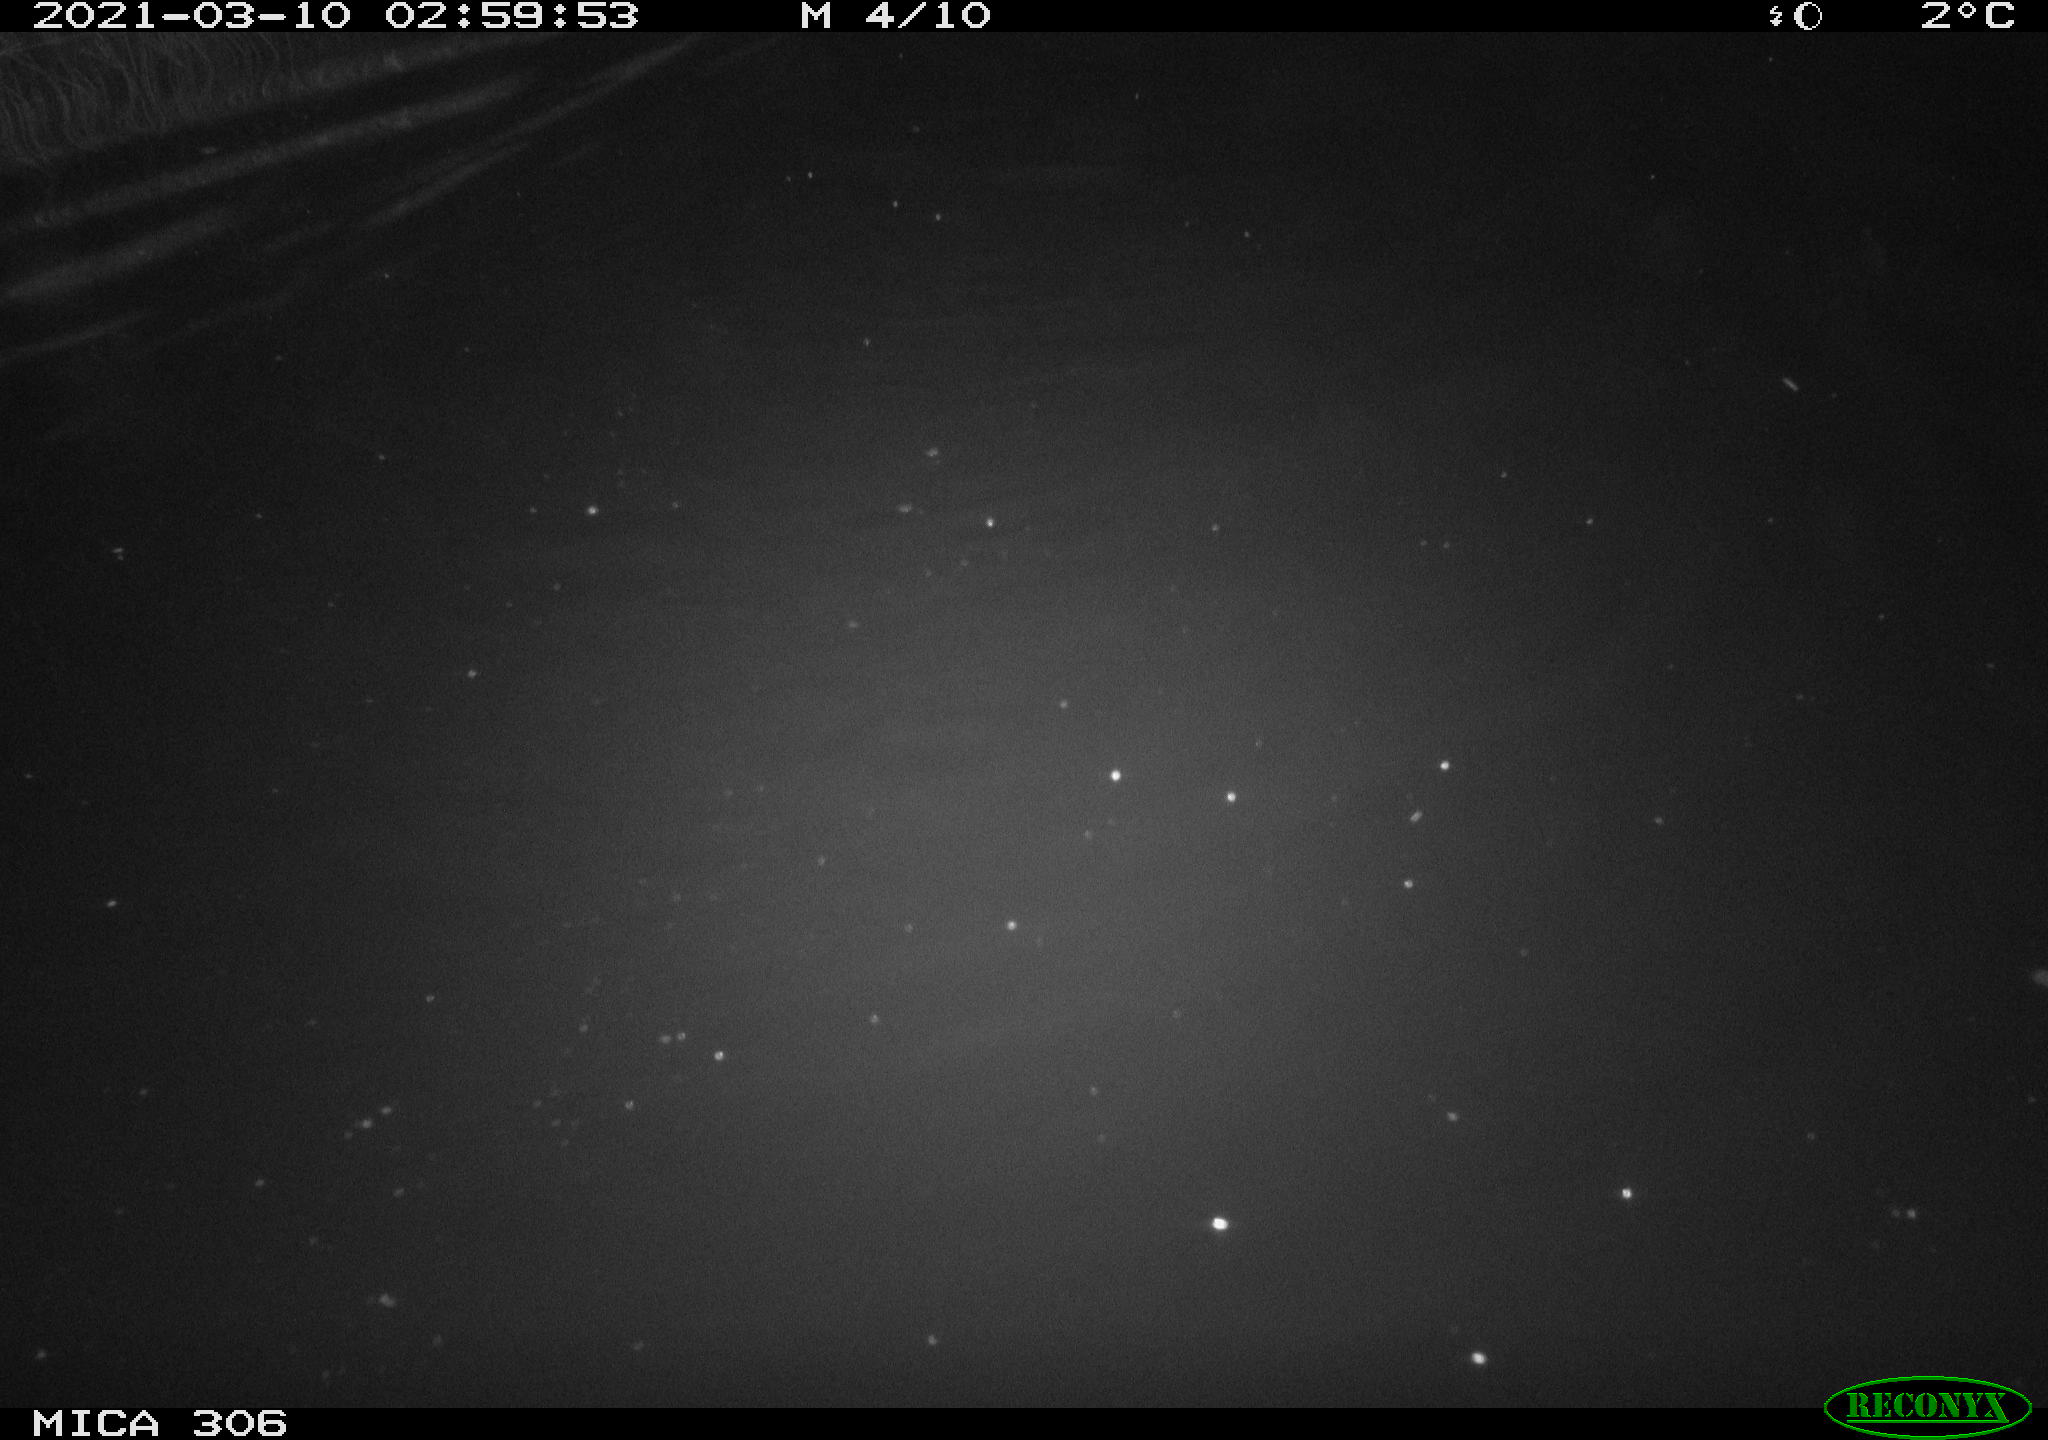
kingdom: Animalia
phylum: Chordata
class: Mammalia
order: Rodentia
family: Cricetidae
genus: Ondatra
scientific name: Ondatra zibethicus
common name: Muskrat
